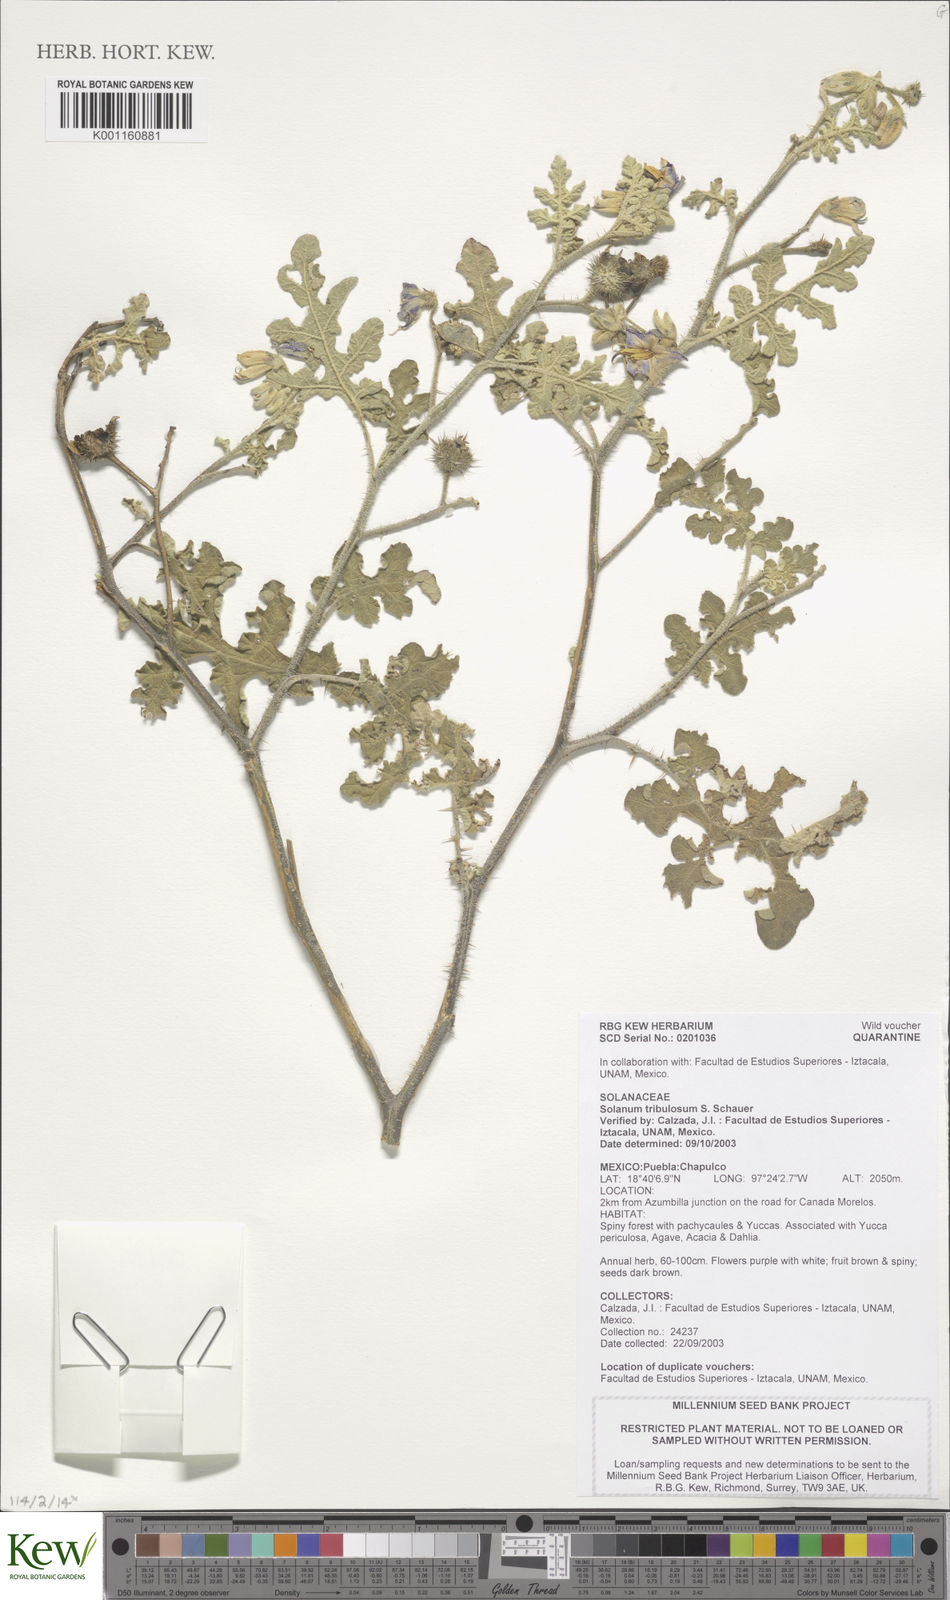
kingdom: Plantae
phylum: Tracheophyta
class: Magnoliopsida
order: Solanales
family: Solanaceae
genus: Solanum
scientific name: Solanum tribulosum
